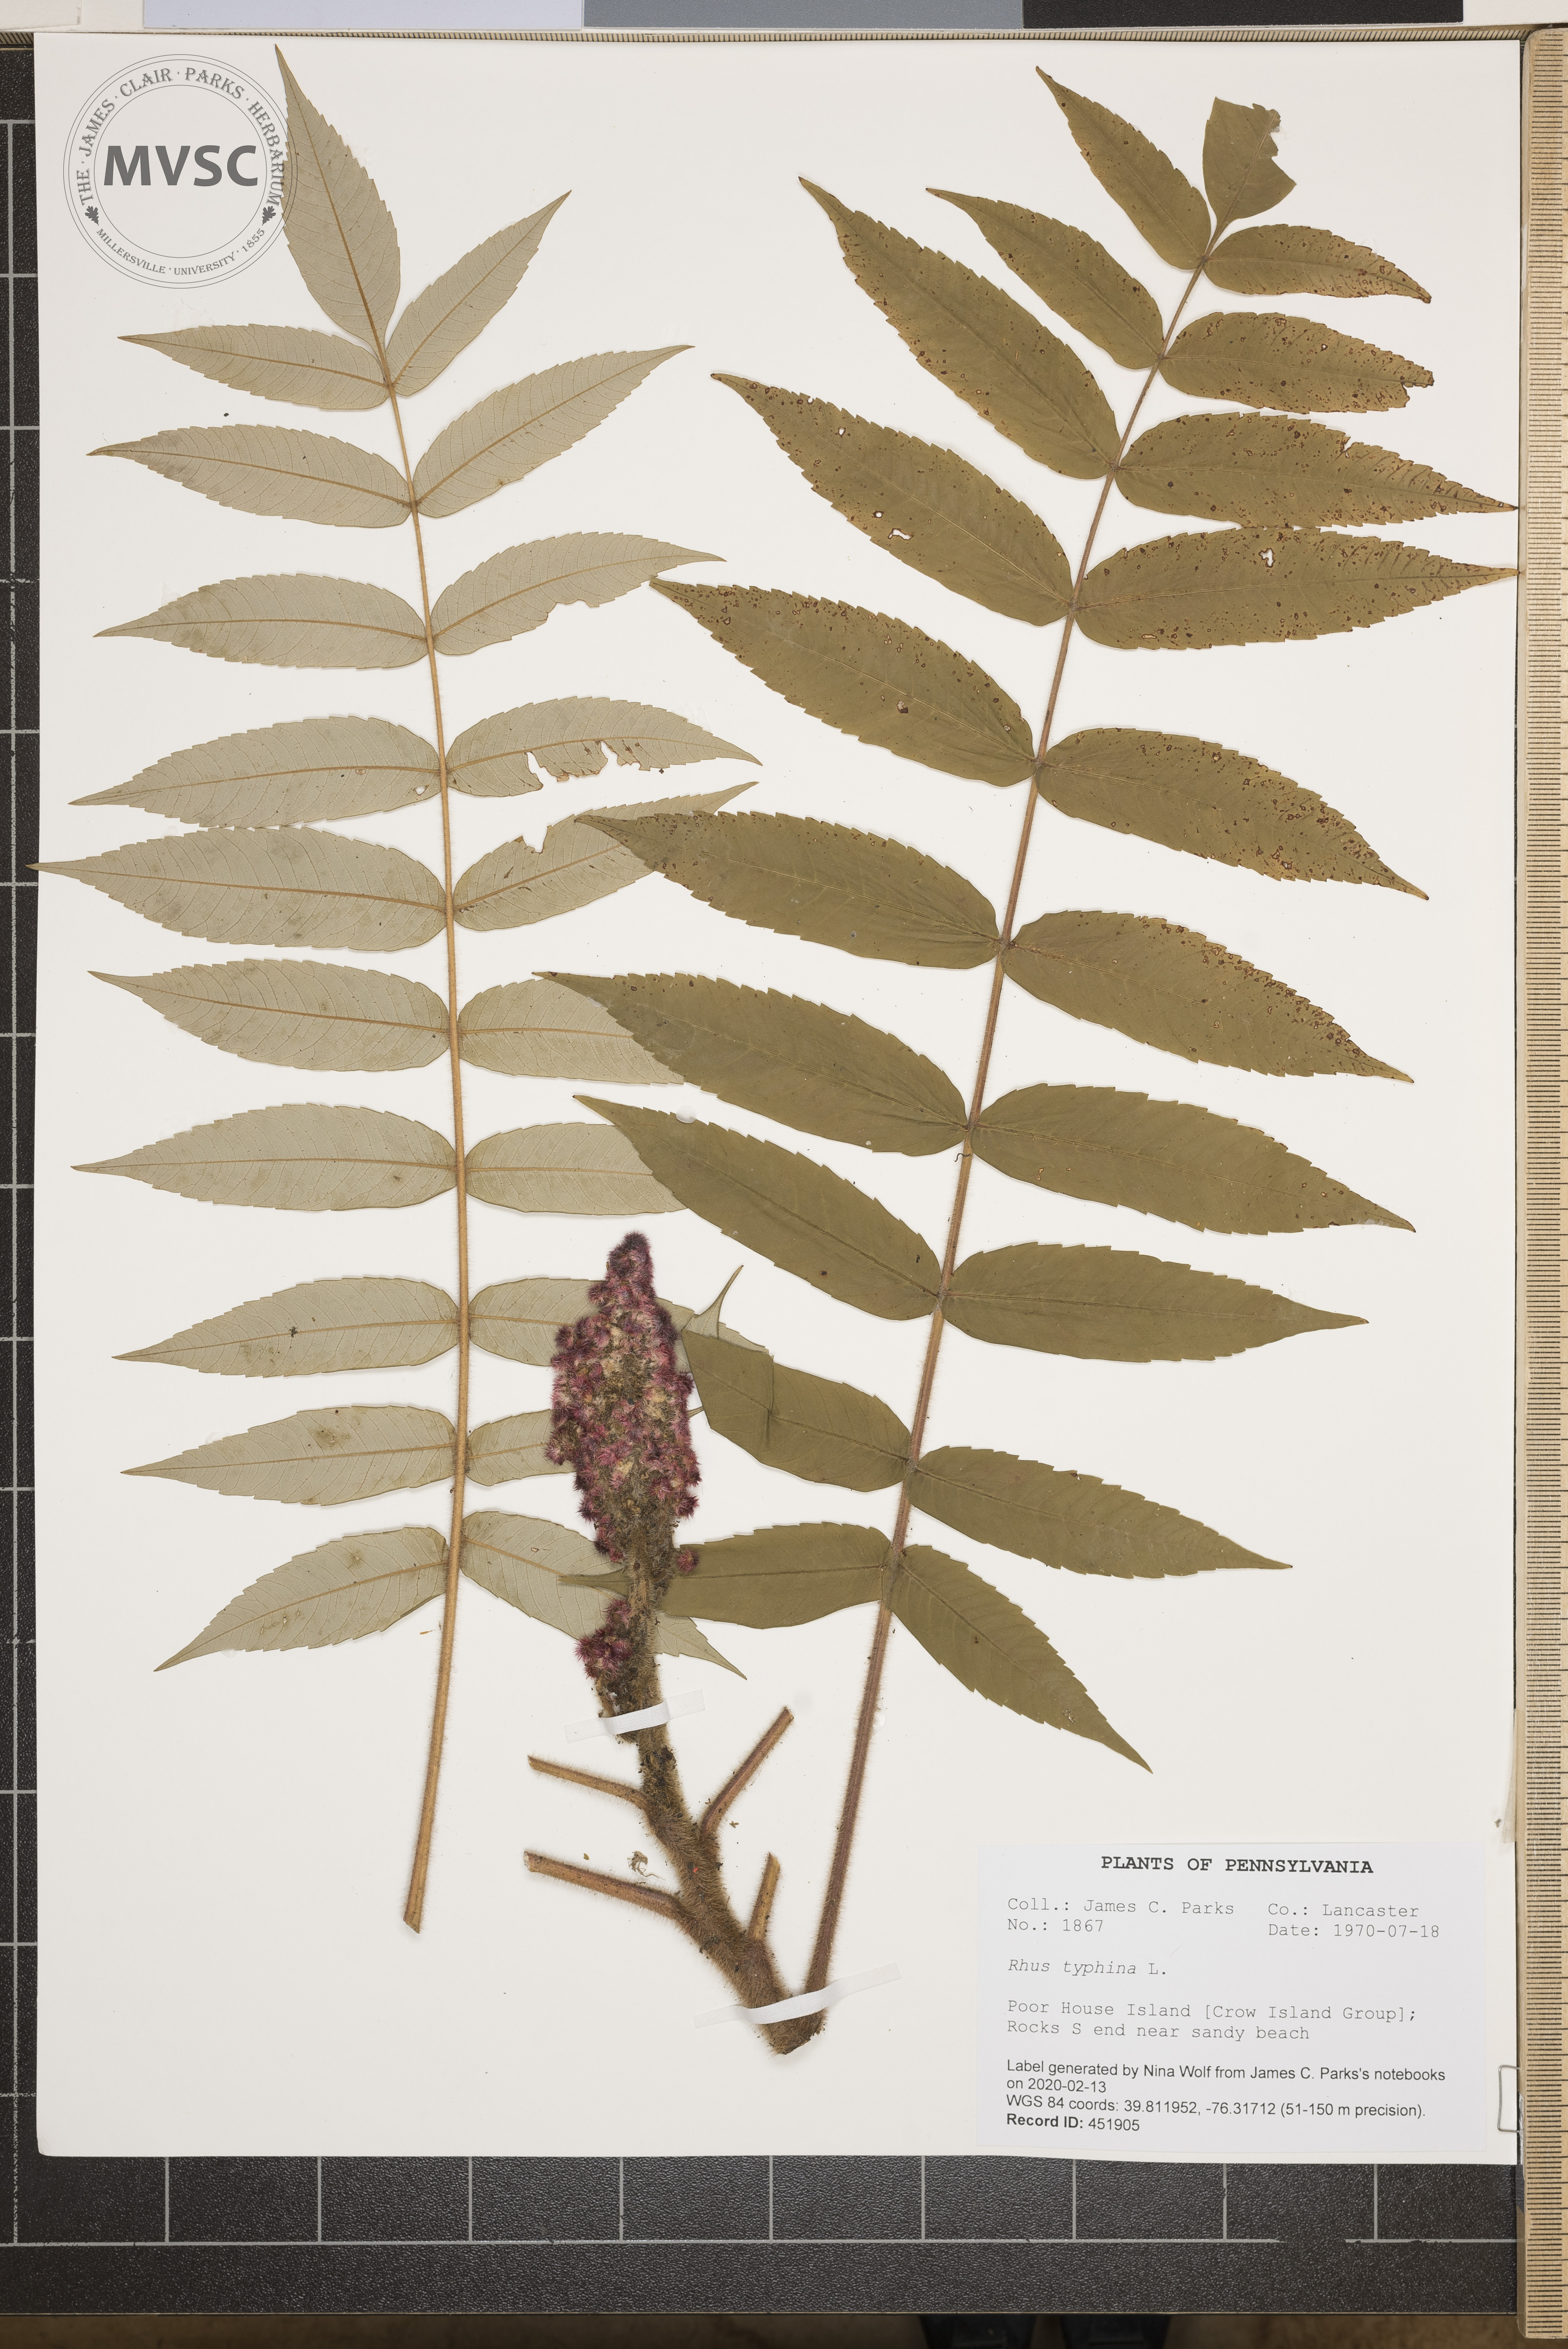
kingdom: Plantae
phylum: Tracheophyta
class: Magnoliopsida
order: Sapindales
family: Anacardiaceae
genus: Rhus
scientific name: Rhus typhina
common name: Staghorn sumac
